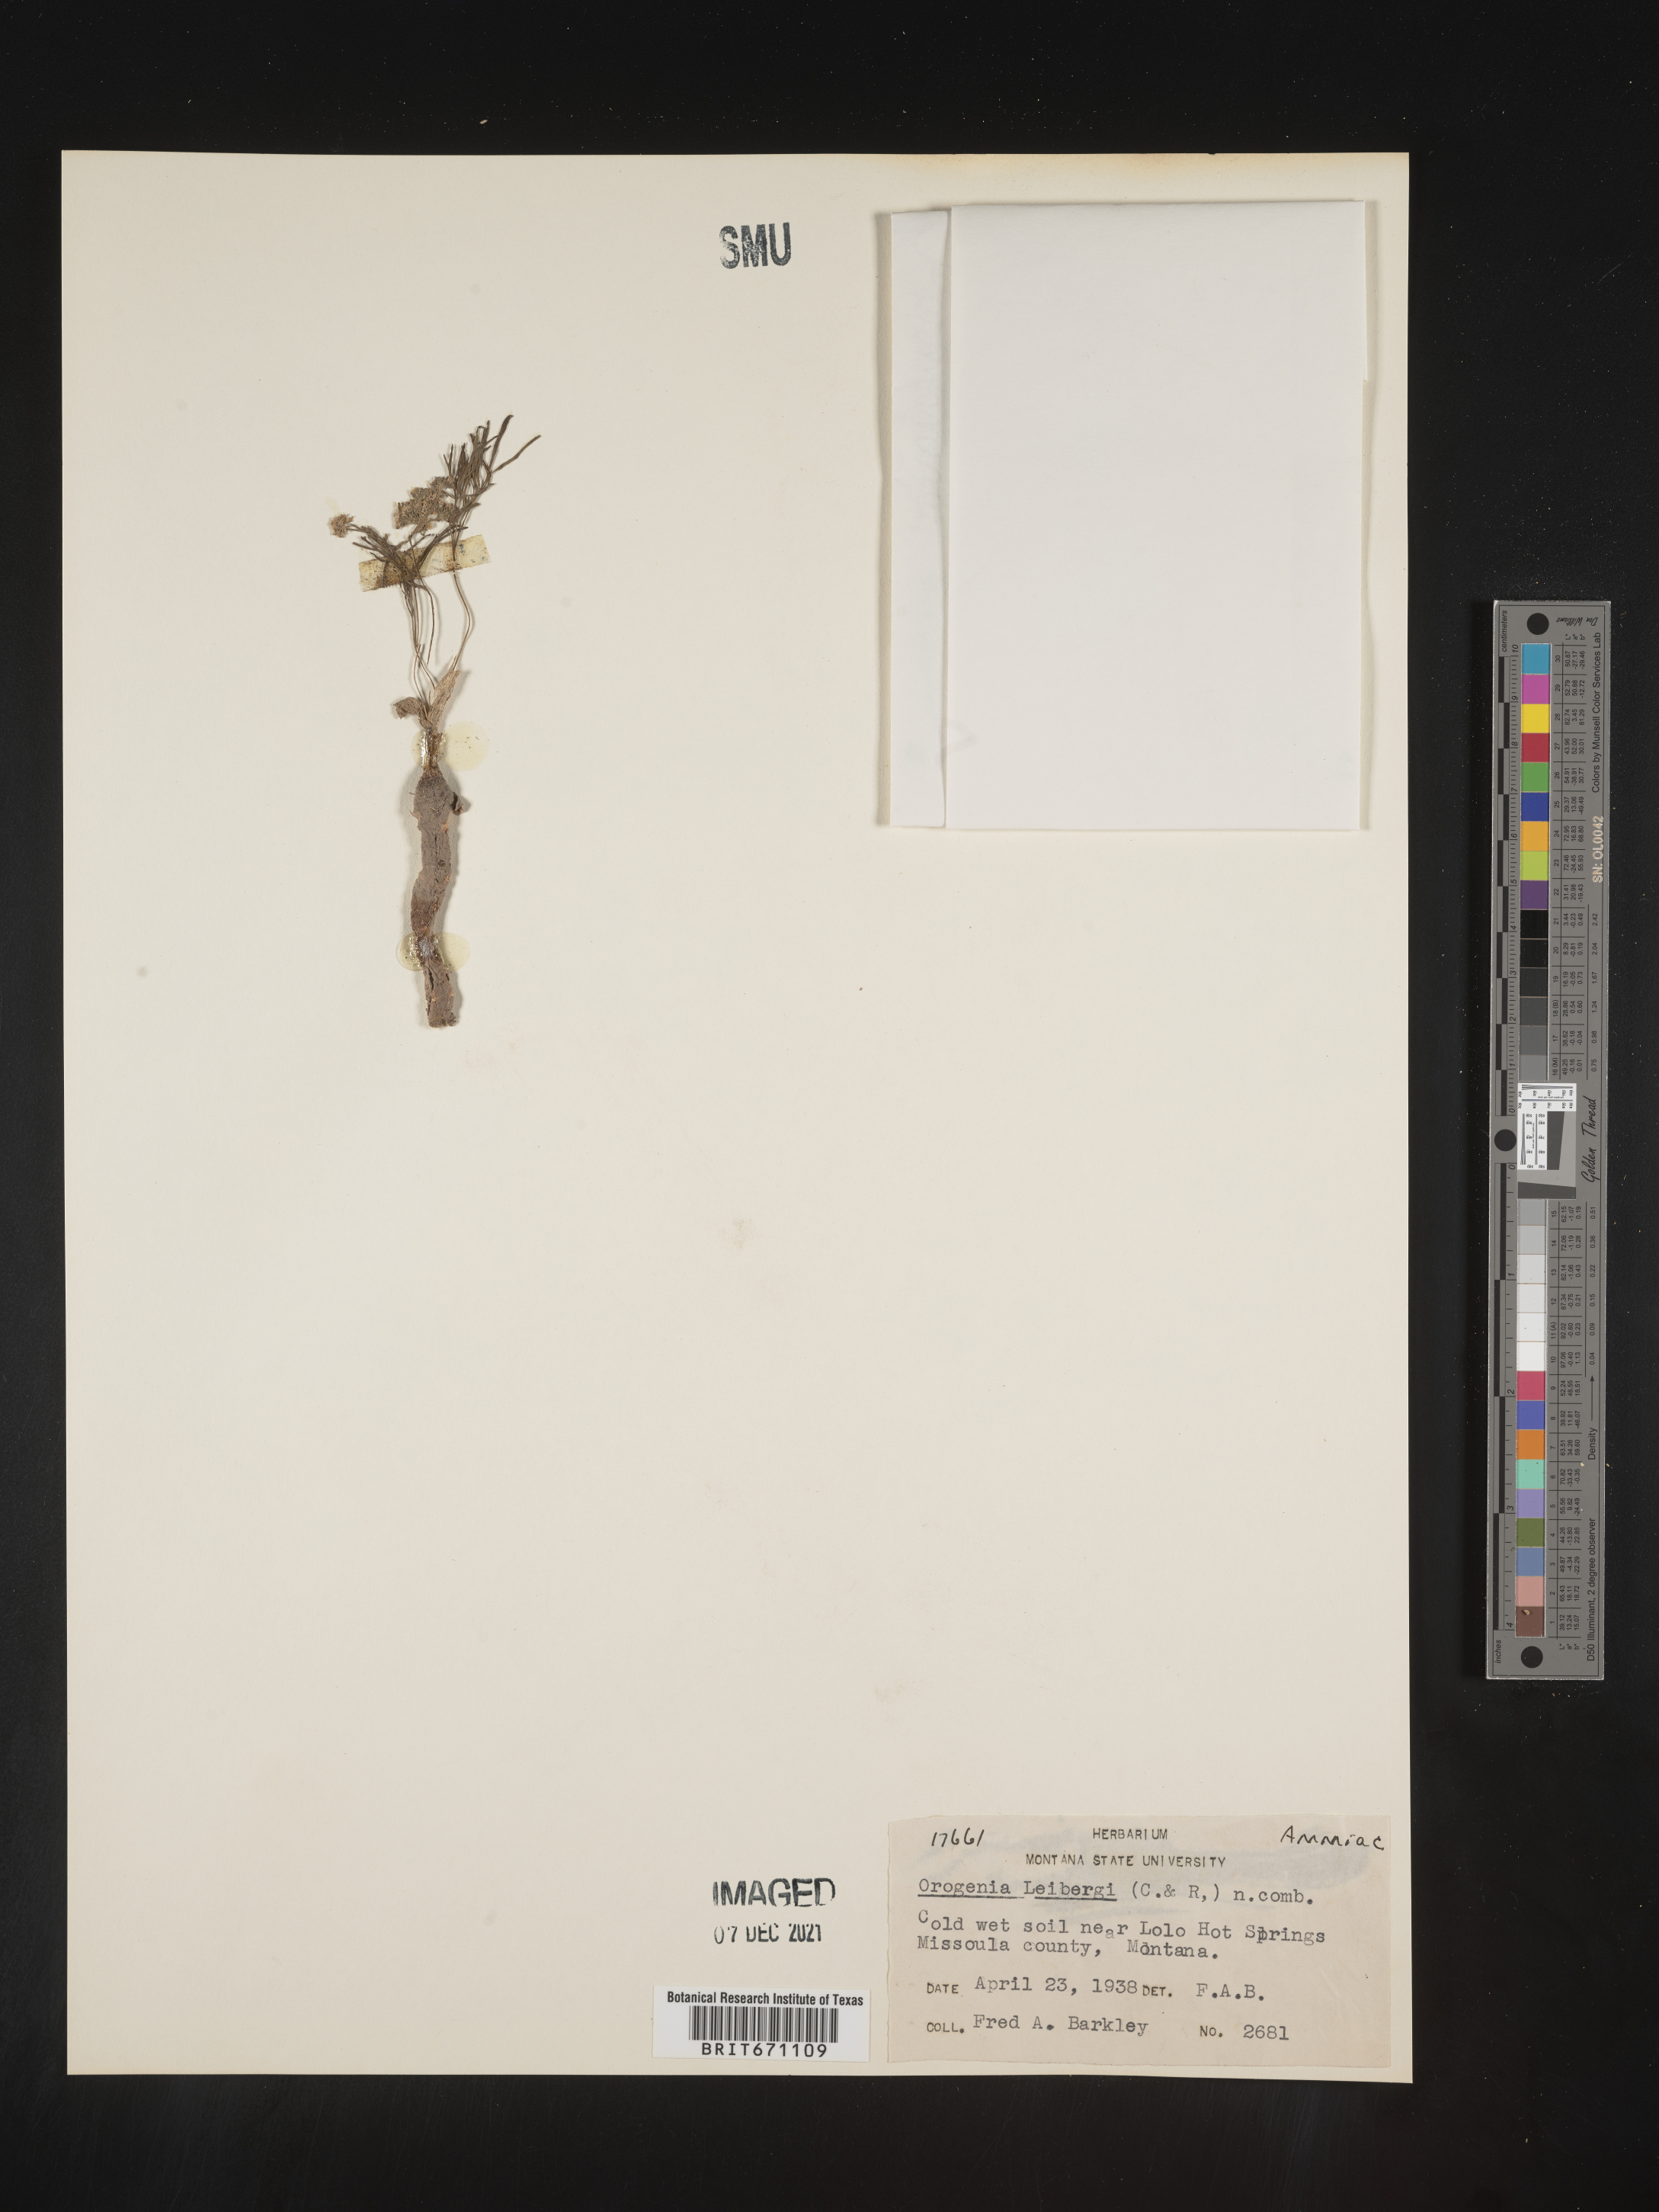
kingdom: Plantae
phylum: Tracheophyta
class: Magnoliopsida
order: Apiales
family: Apiaceae
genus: Lomatium
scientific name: Lomatium fusiformis
